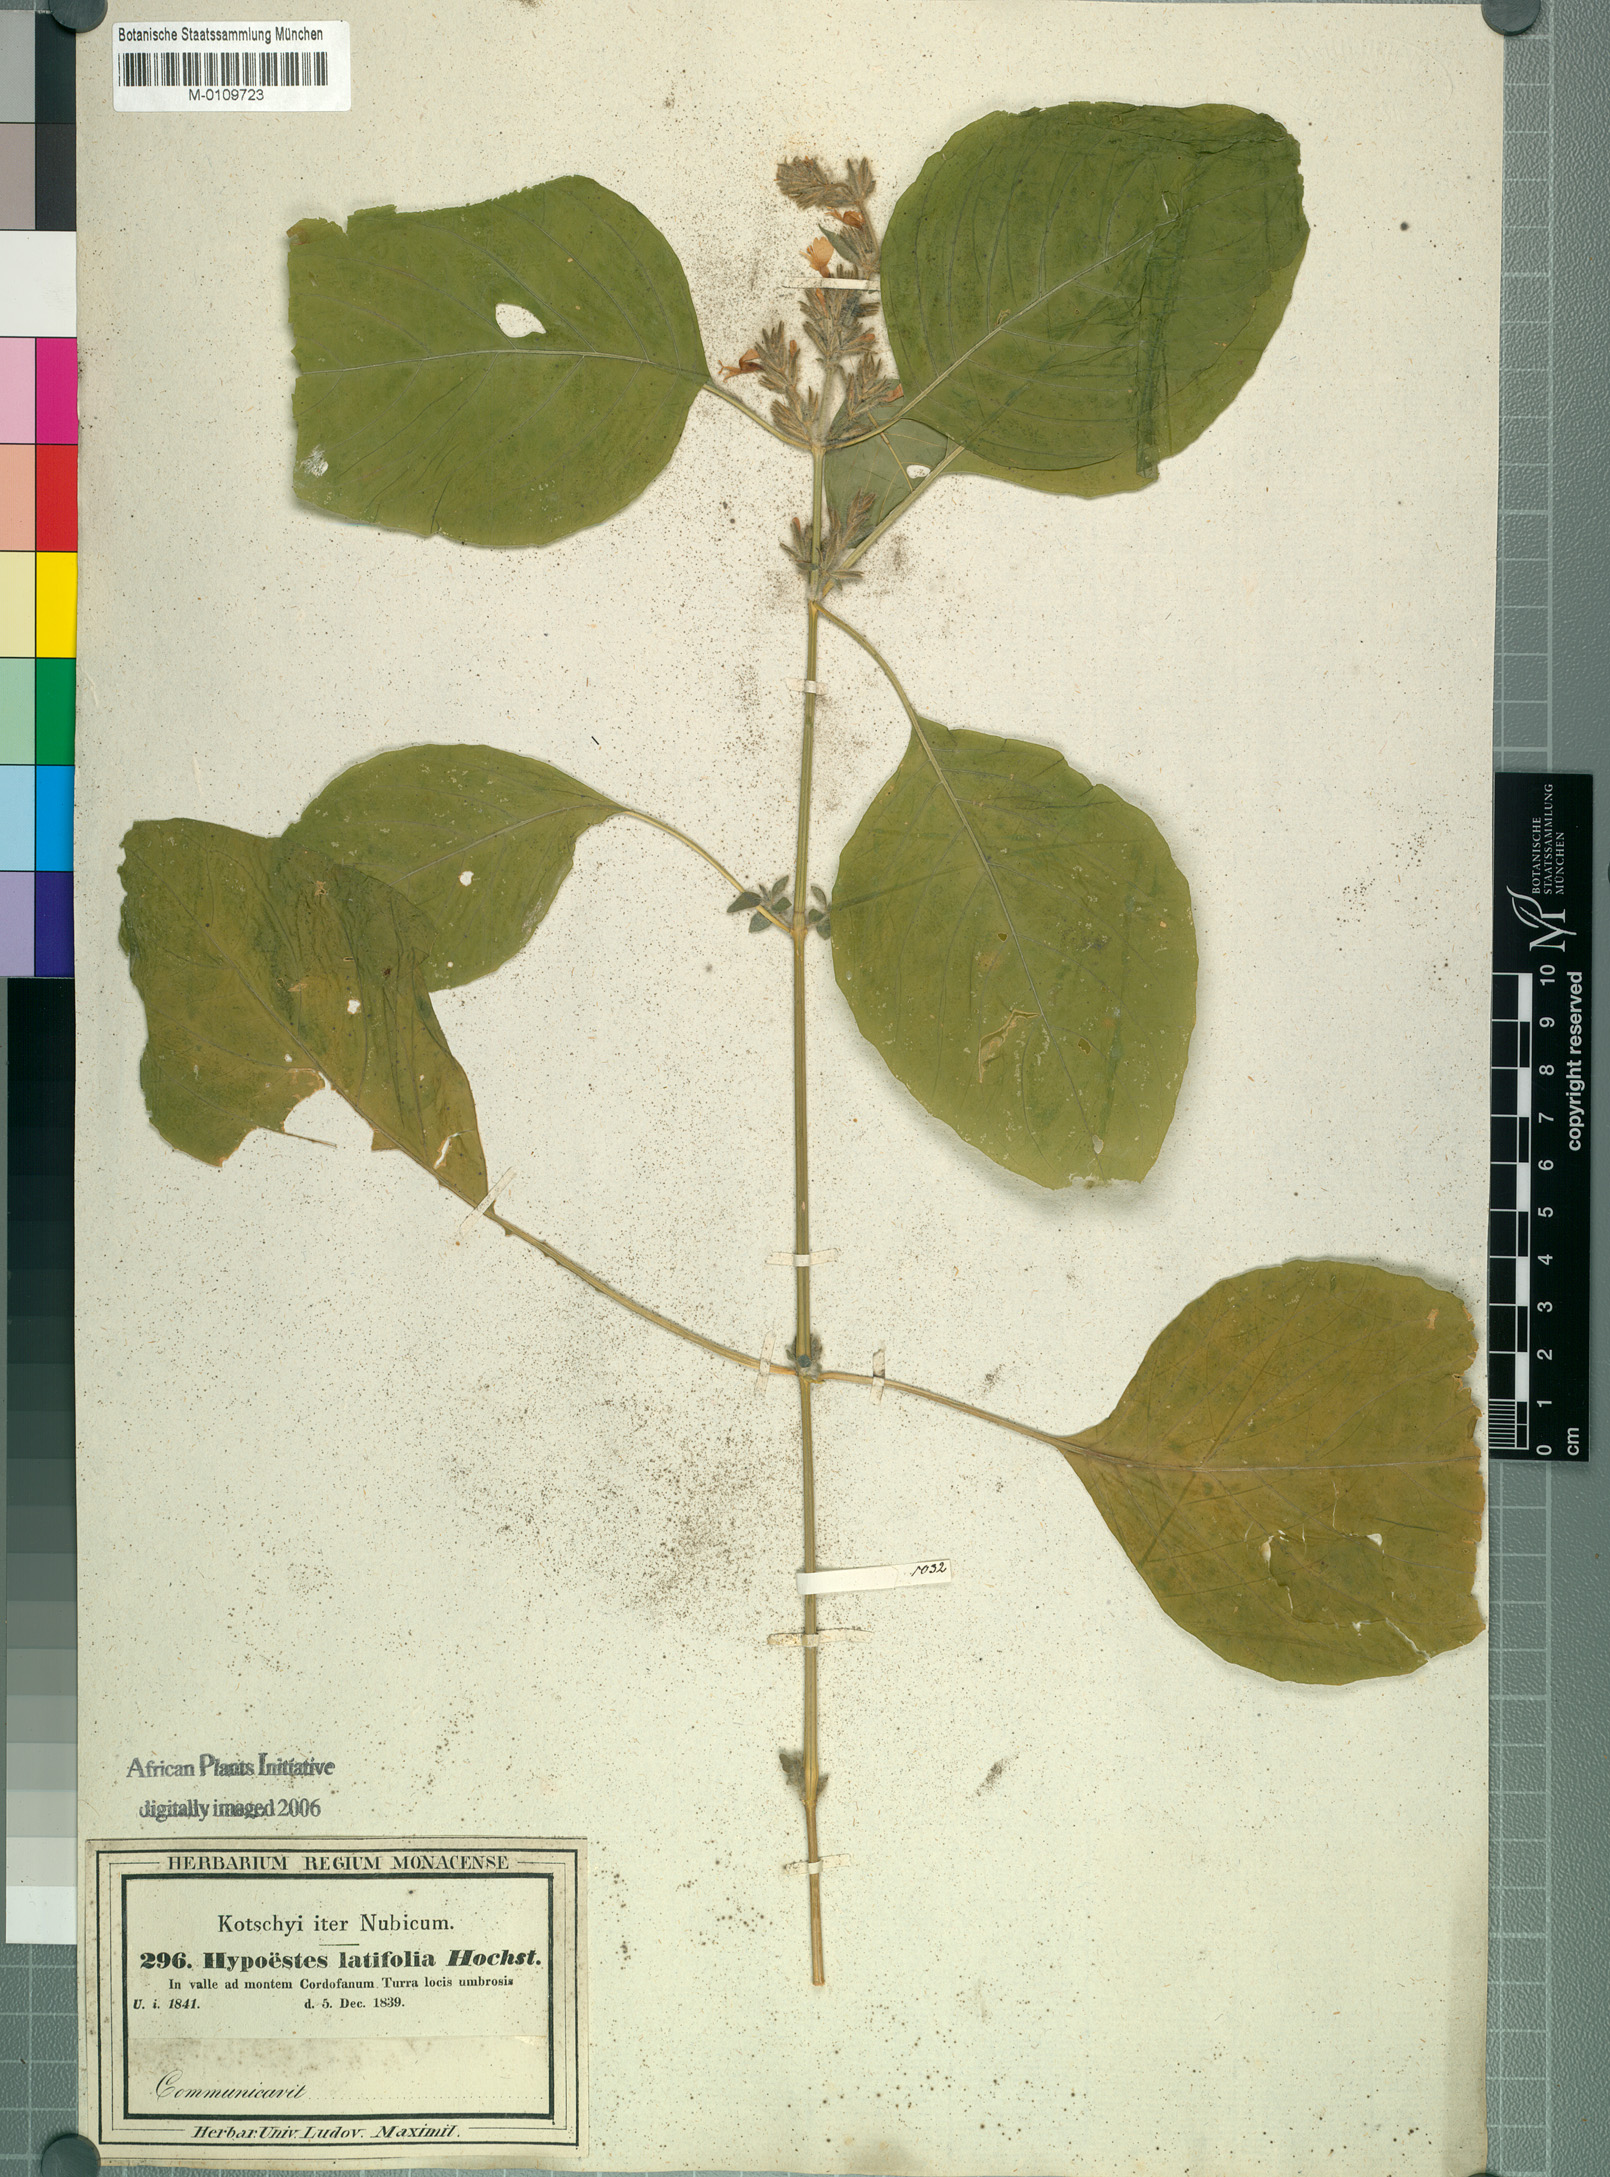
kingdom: Plantae
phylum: Tracheophyta
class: Magnoliopsida
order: Lamiales
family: Acanthaceae
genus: Hypoestes
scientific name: Hypoestes forskaolii
